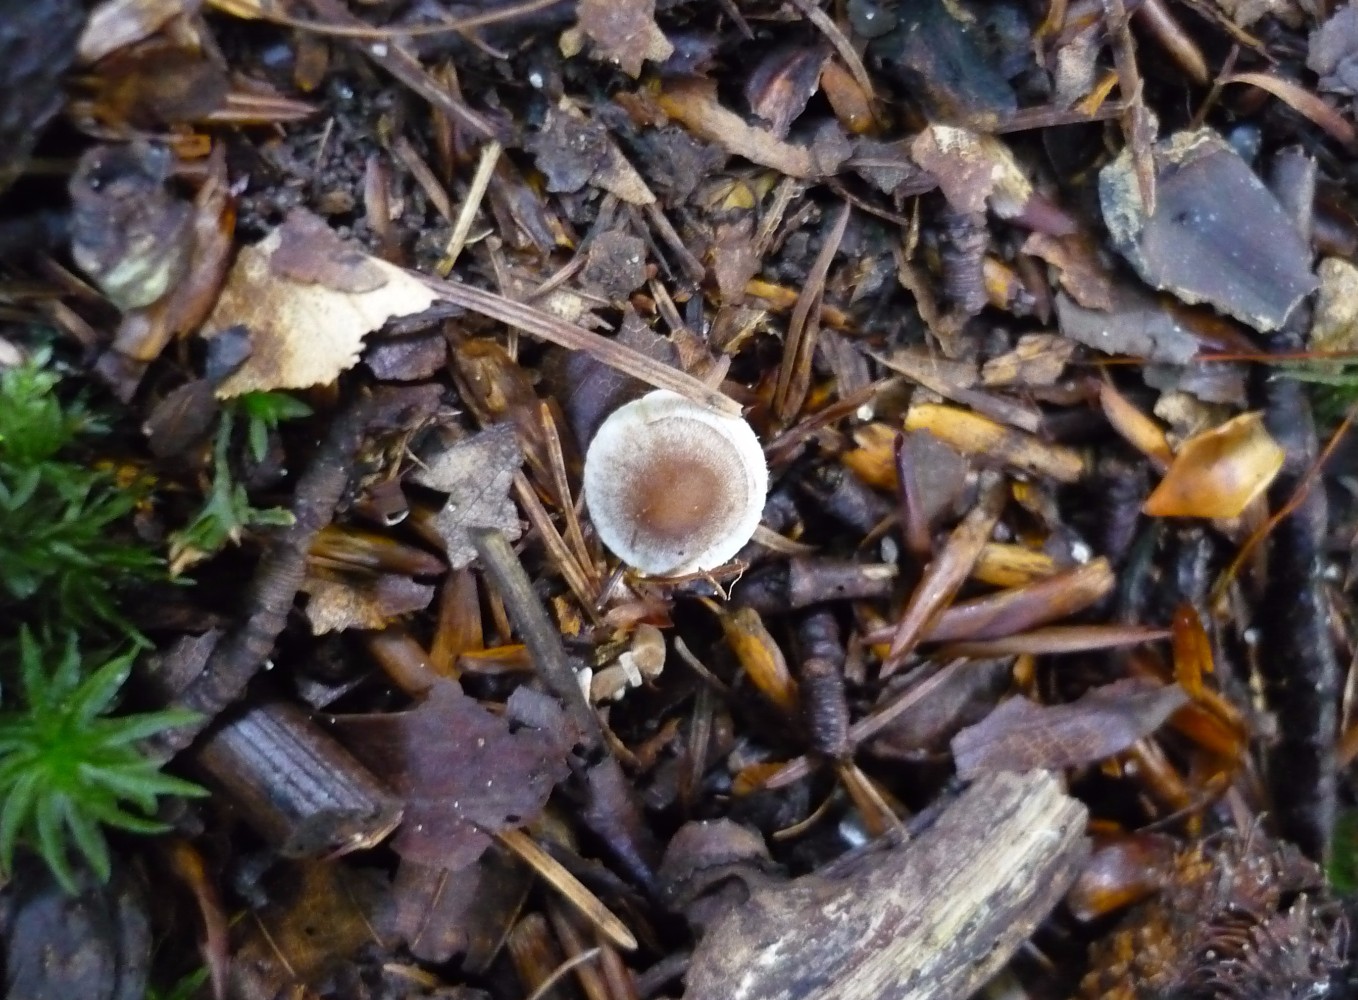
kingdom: Fungi
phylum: Basidiomycota
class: Agaricomycetes
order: Agaricales
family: Inocybaceae
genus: Inocybe
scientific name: Inocybe petiginosa
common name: liden trævlhat
